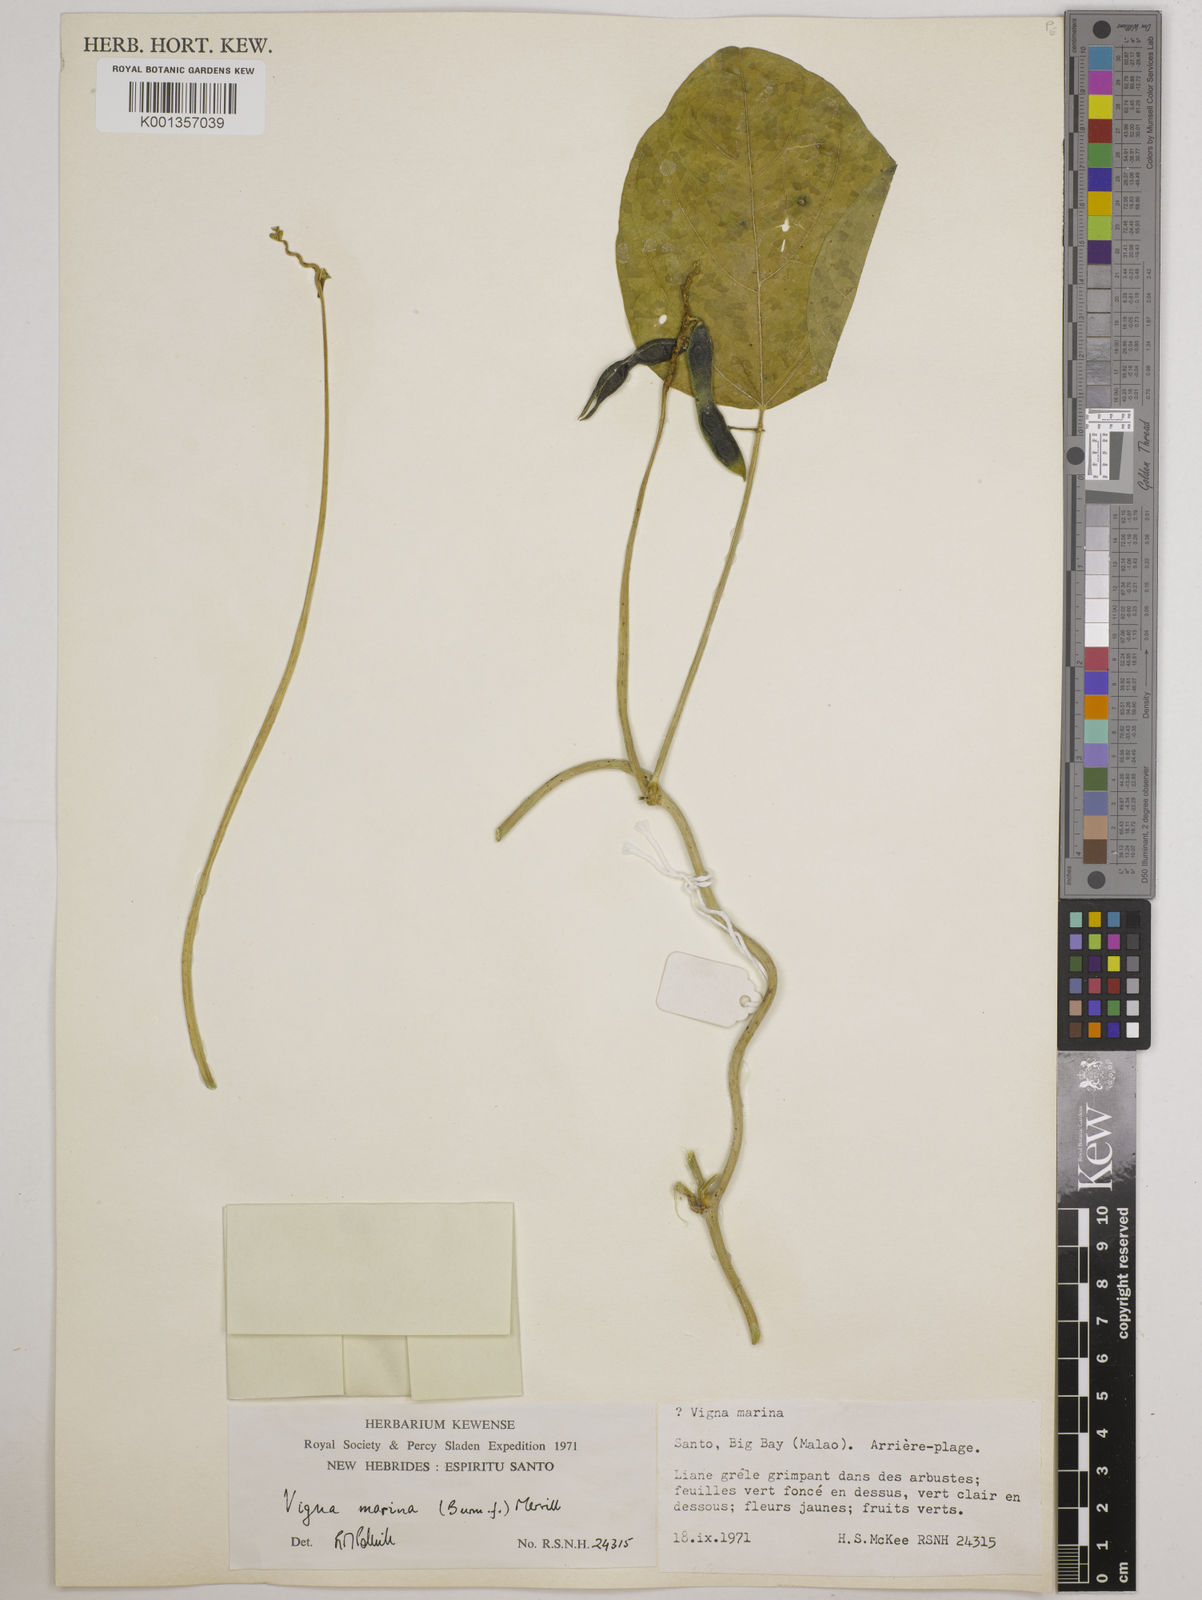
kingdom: Plantae
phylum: Tracheophyta
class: Magnoliopsida
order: Fabales
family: Fabaceae
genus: Vigna
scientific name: Vigna marina
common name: Dune-bean
